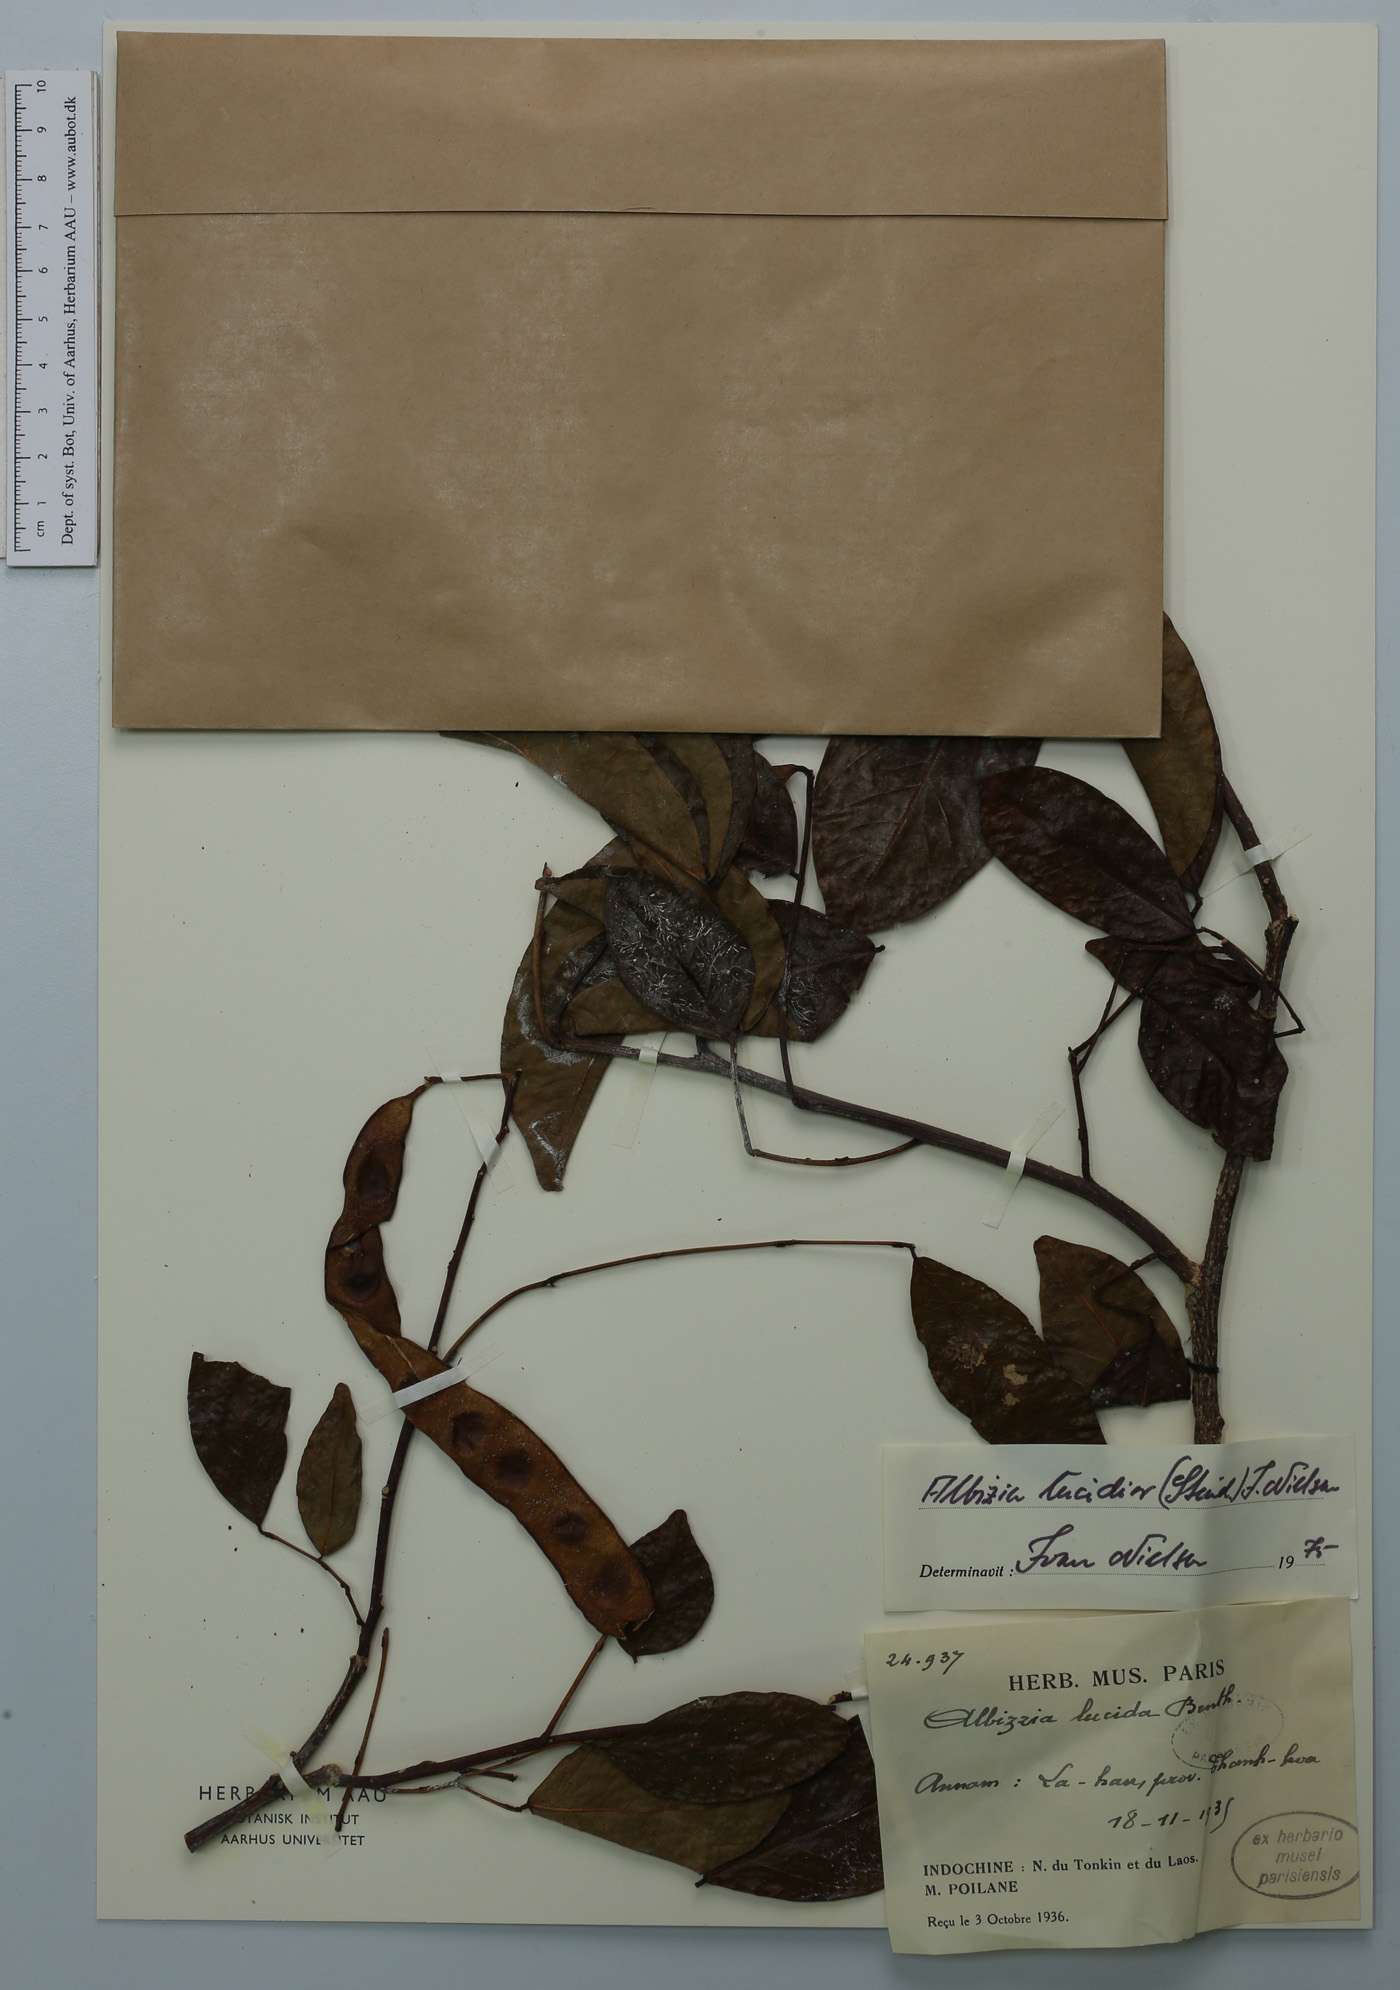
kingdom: Plantae
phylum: Tracheophyta
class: Magnoliopsida
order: Fabales
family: Fabaceae
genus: Albizia
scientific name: Albizia lucidior
